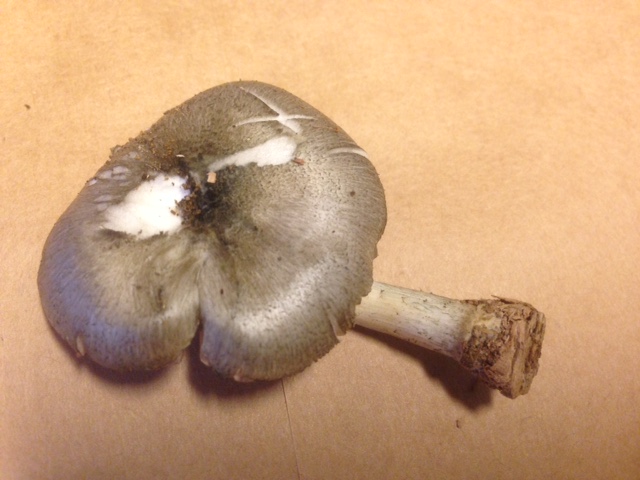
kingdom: Fungi
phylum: Basidiomycota
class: Agaricomycetes
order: Agaricales
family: Pluteaceae
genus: Pluteus
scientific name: Pluteus
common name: gråfibret skærmhat
